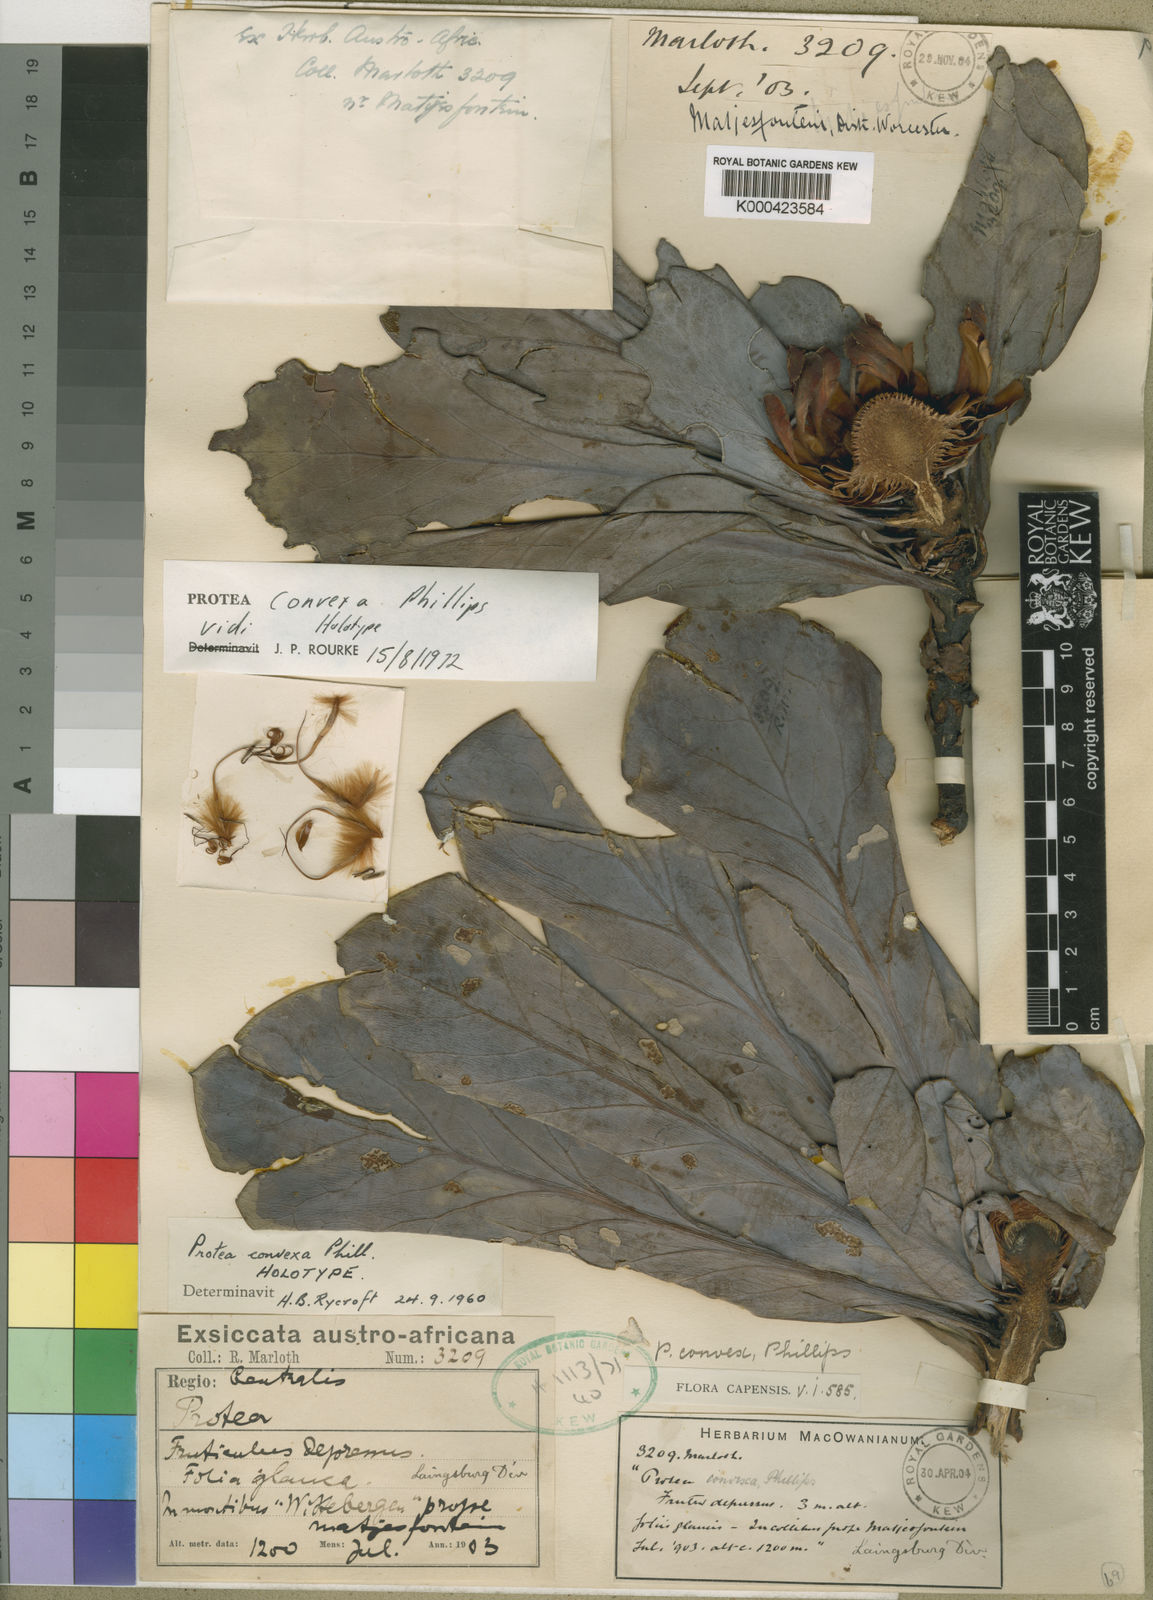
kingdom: Plantae
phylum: Tracheophyta
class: Magnoliopsida
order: Proteales
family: Proteaceae
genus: Protea
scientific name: Protea convexa
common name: Large-leaf sugarbush
